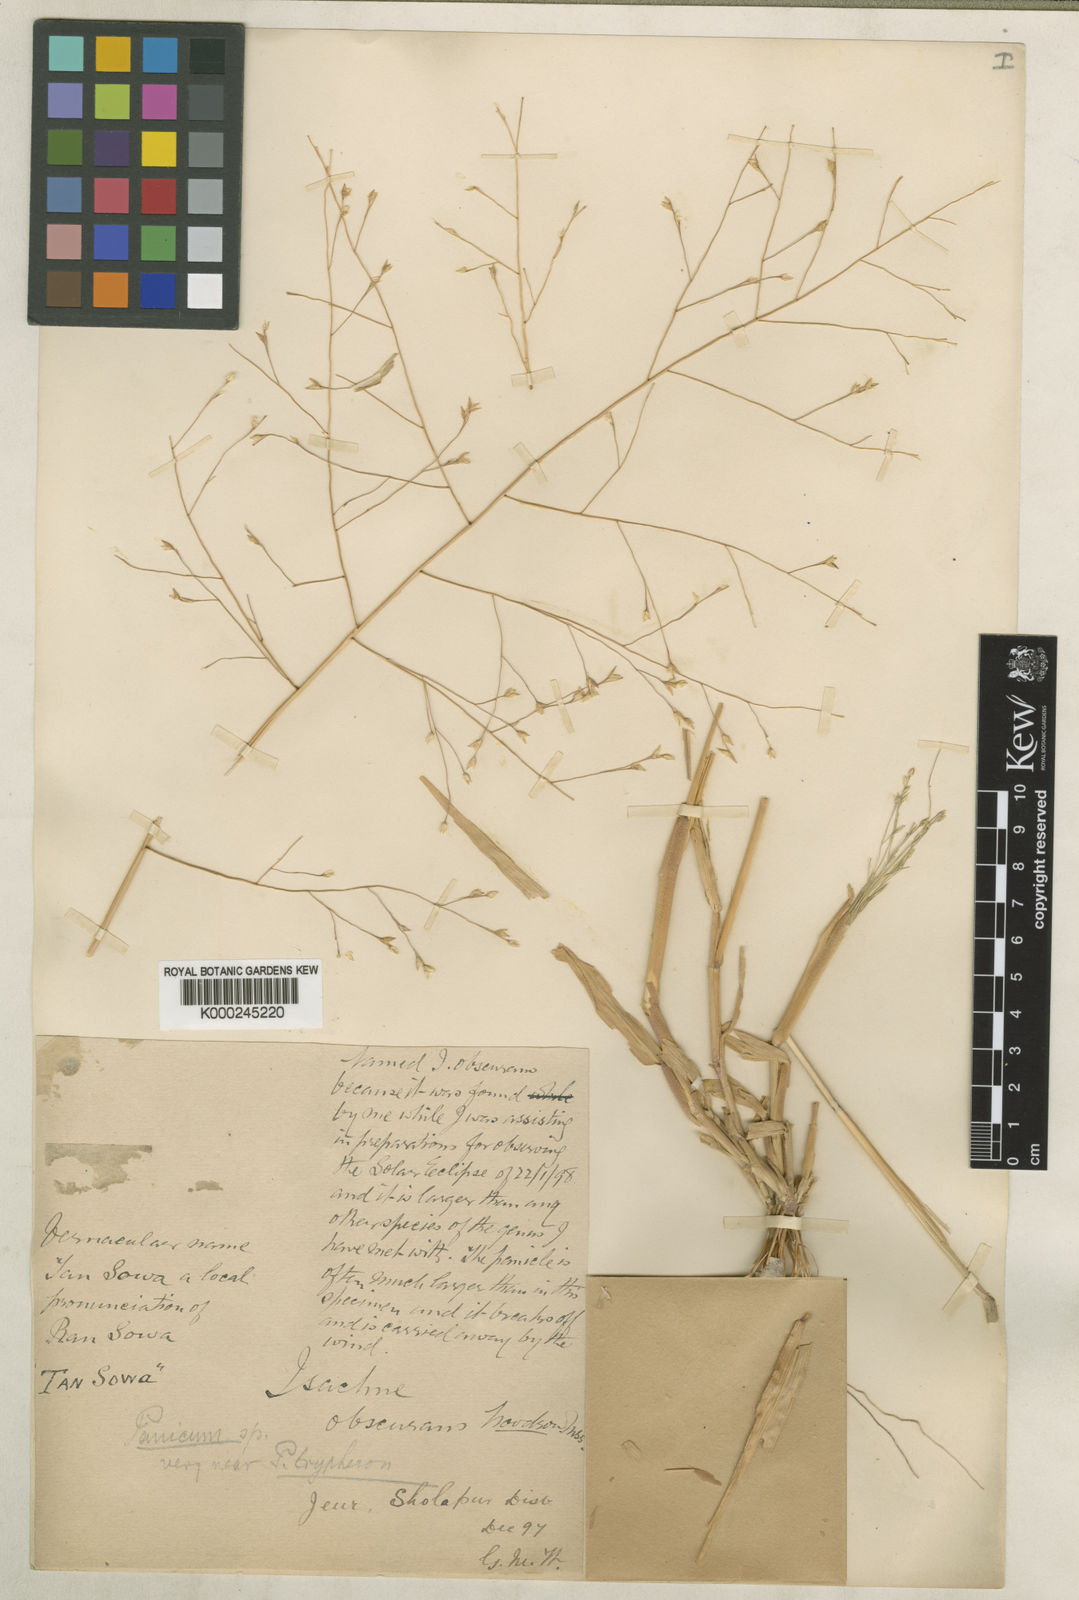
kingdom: Plantae
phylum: Tracheophyta
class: Liliopsida
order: Poales
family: Poaceae
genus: Panicum
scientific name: Panicum hippothrix
